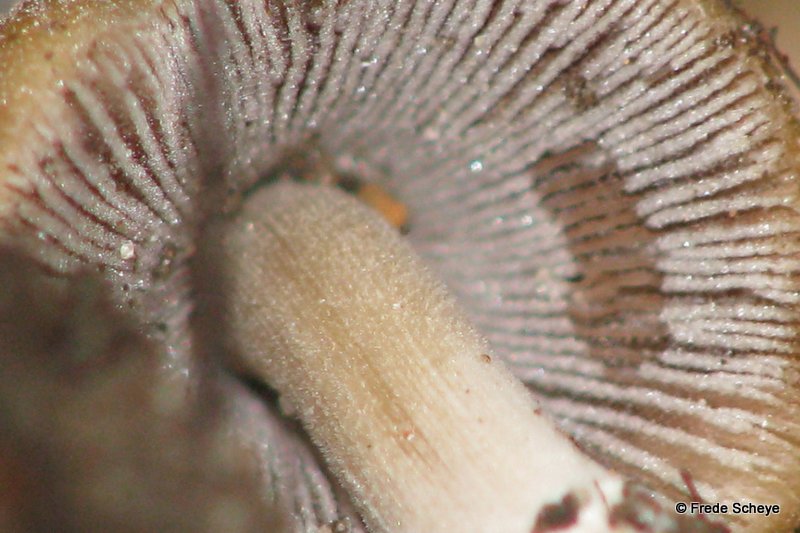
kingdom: Fungi
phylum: Basidiomycota
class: Agaricomycetes
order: Agaricales
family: Psathyrellaceae
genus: Coprinellus
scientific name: Coprinellus micaceus
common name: glimmer-blækhat
